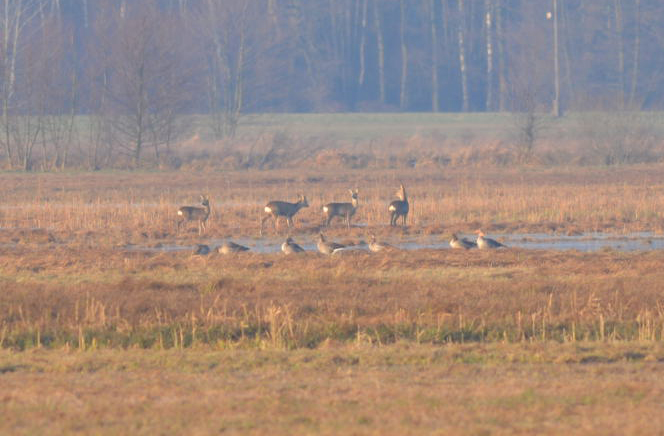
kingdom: Animalia
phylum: Chordata
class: Mammalia
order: Artiodactyla
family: Cervidae
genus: Capreolus
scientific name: Capreolus capreolus
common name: Western roe deer
